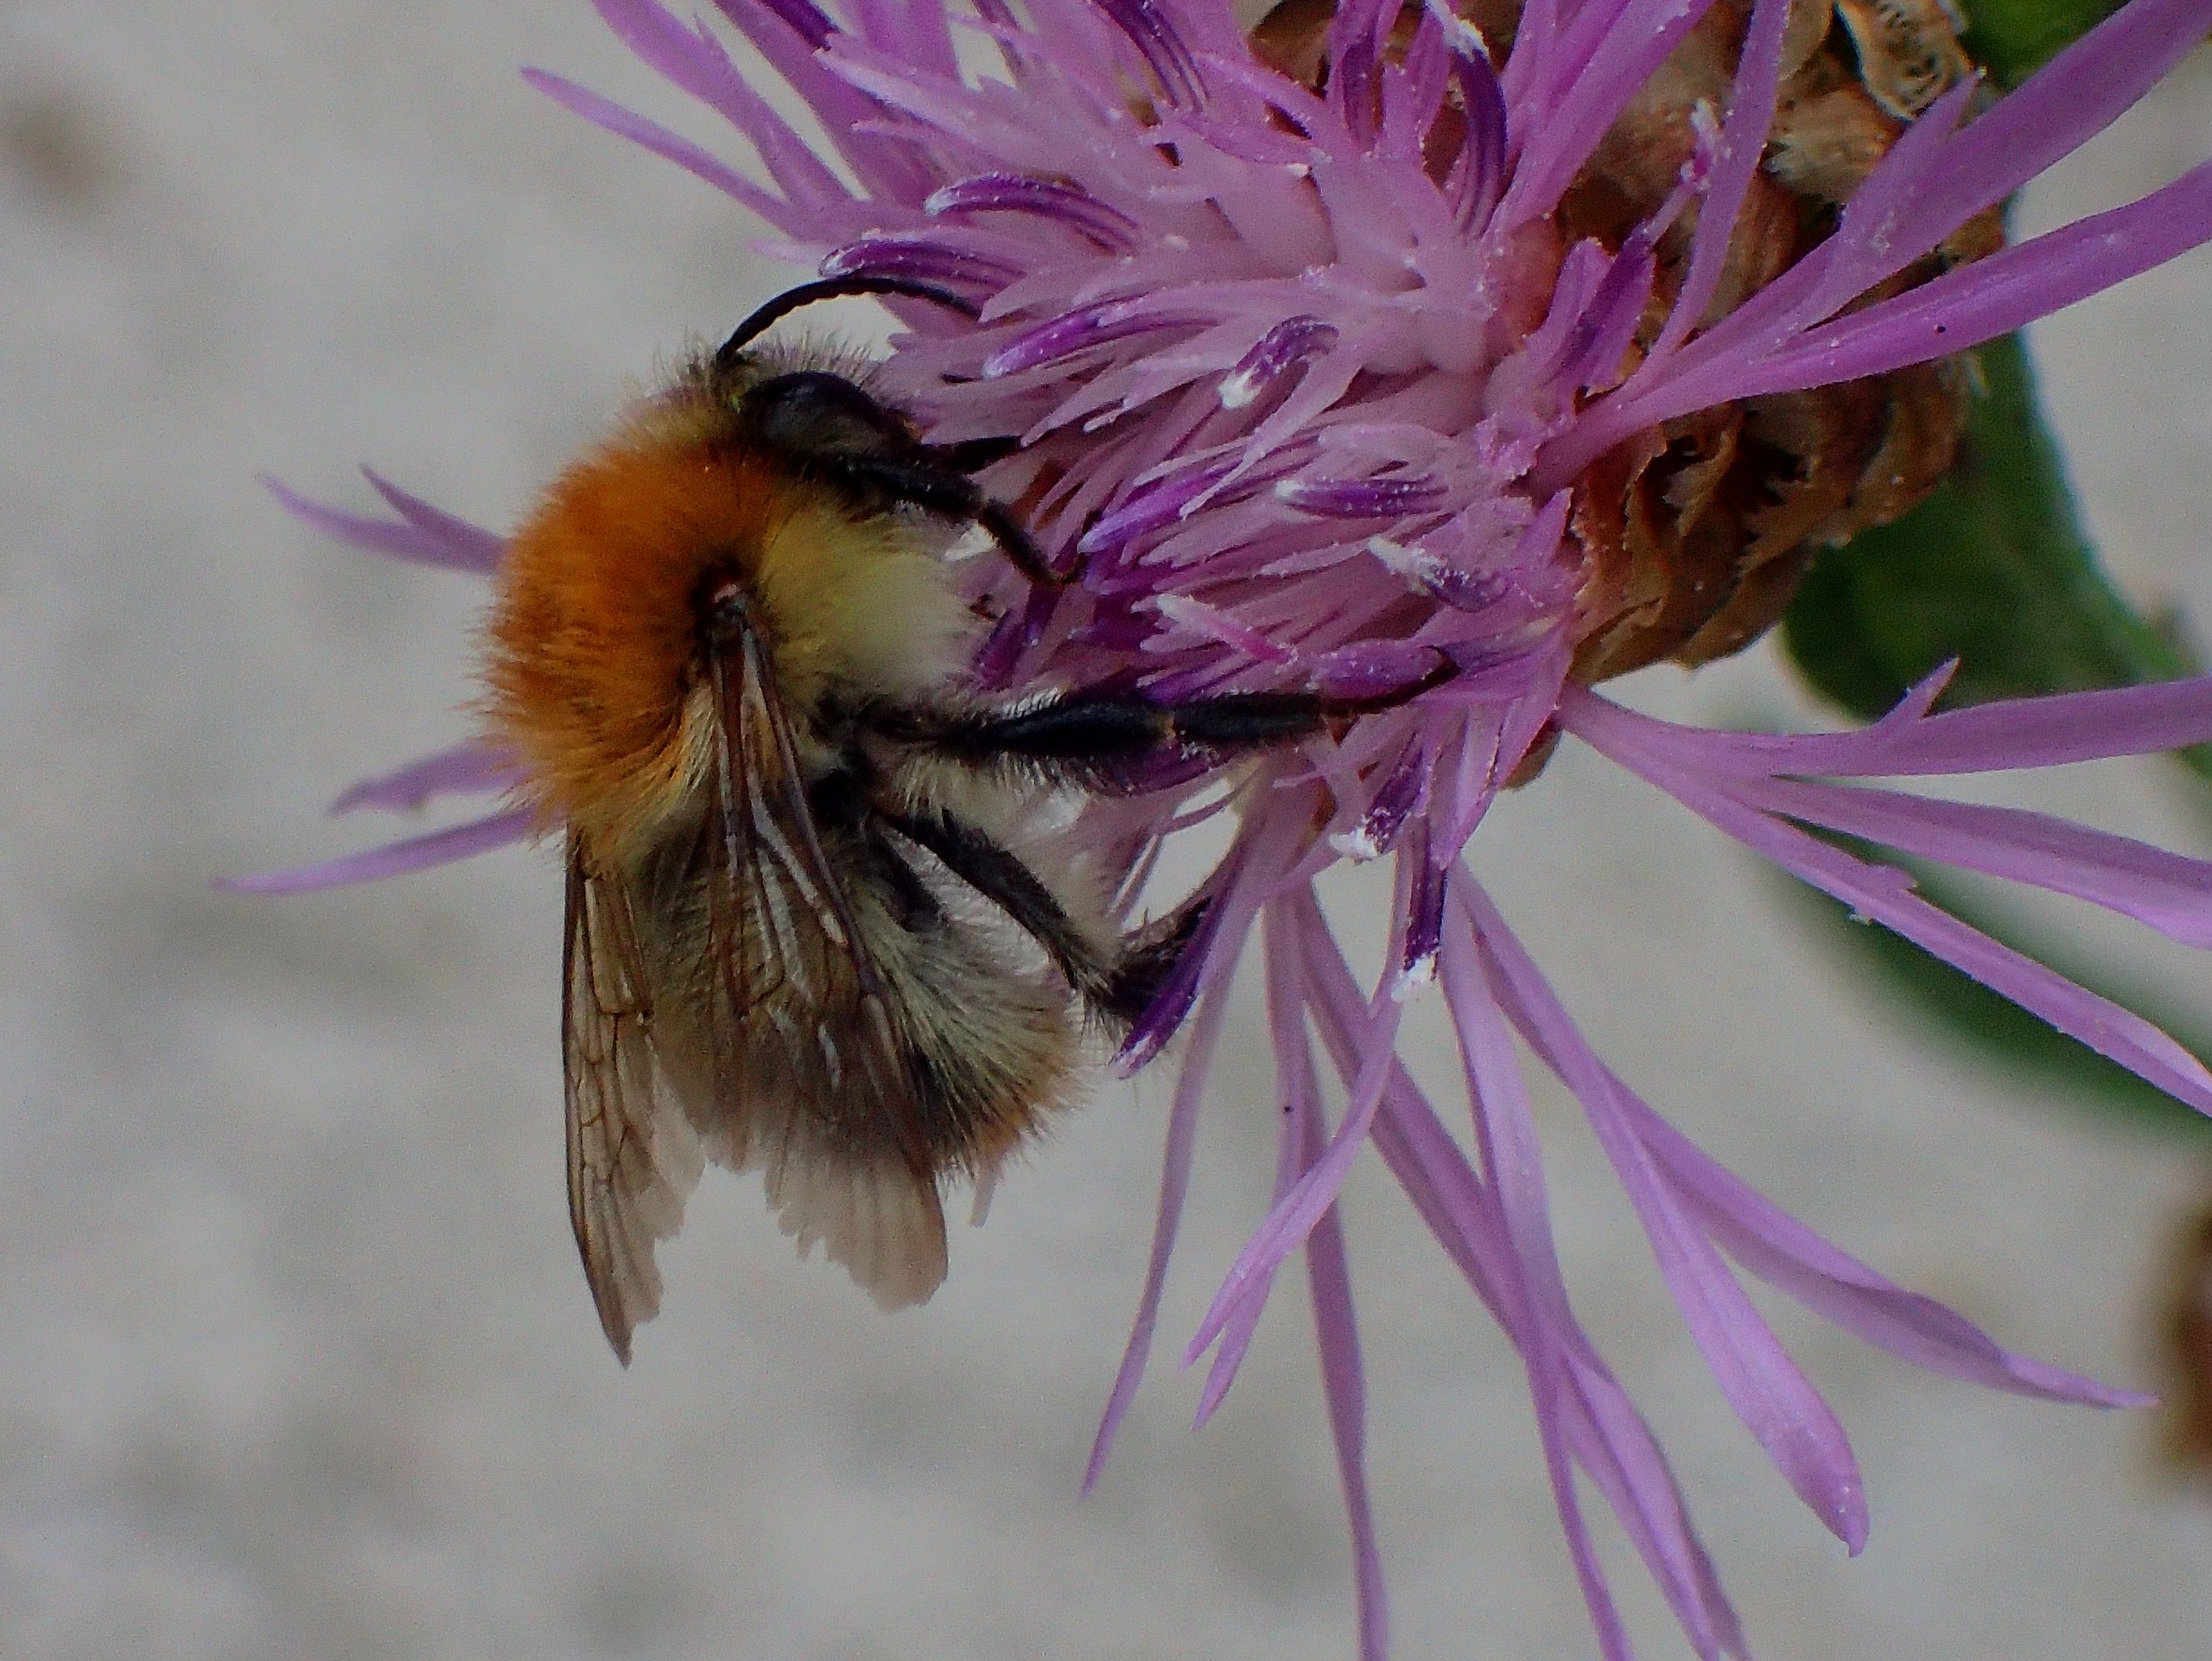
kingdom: Animalia
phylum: Arthropoda
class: Insecta
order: Hymenoptera
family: Apidae
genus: Bombus
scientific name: Bombus pascuorum
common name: Agerhumle
